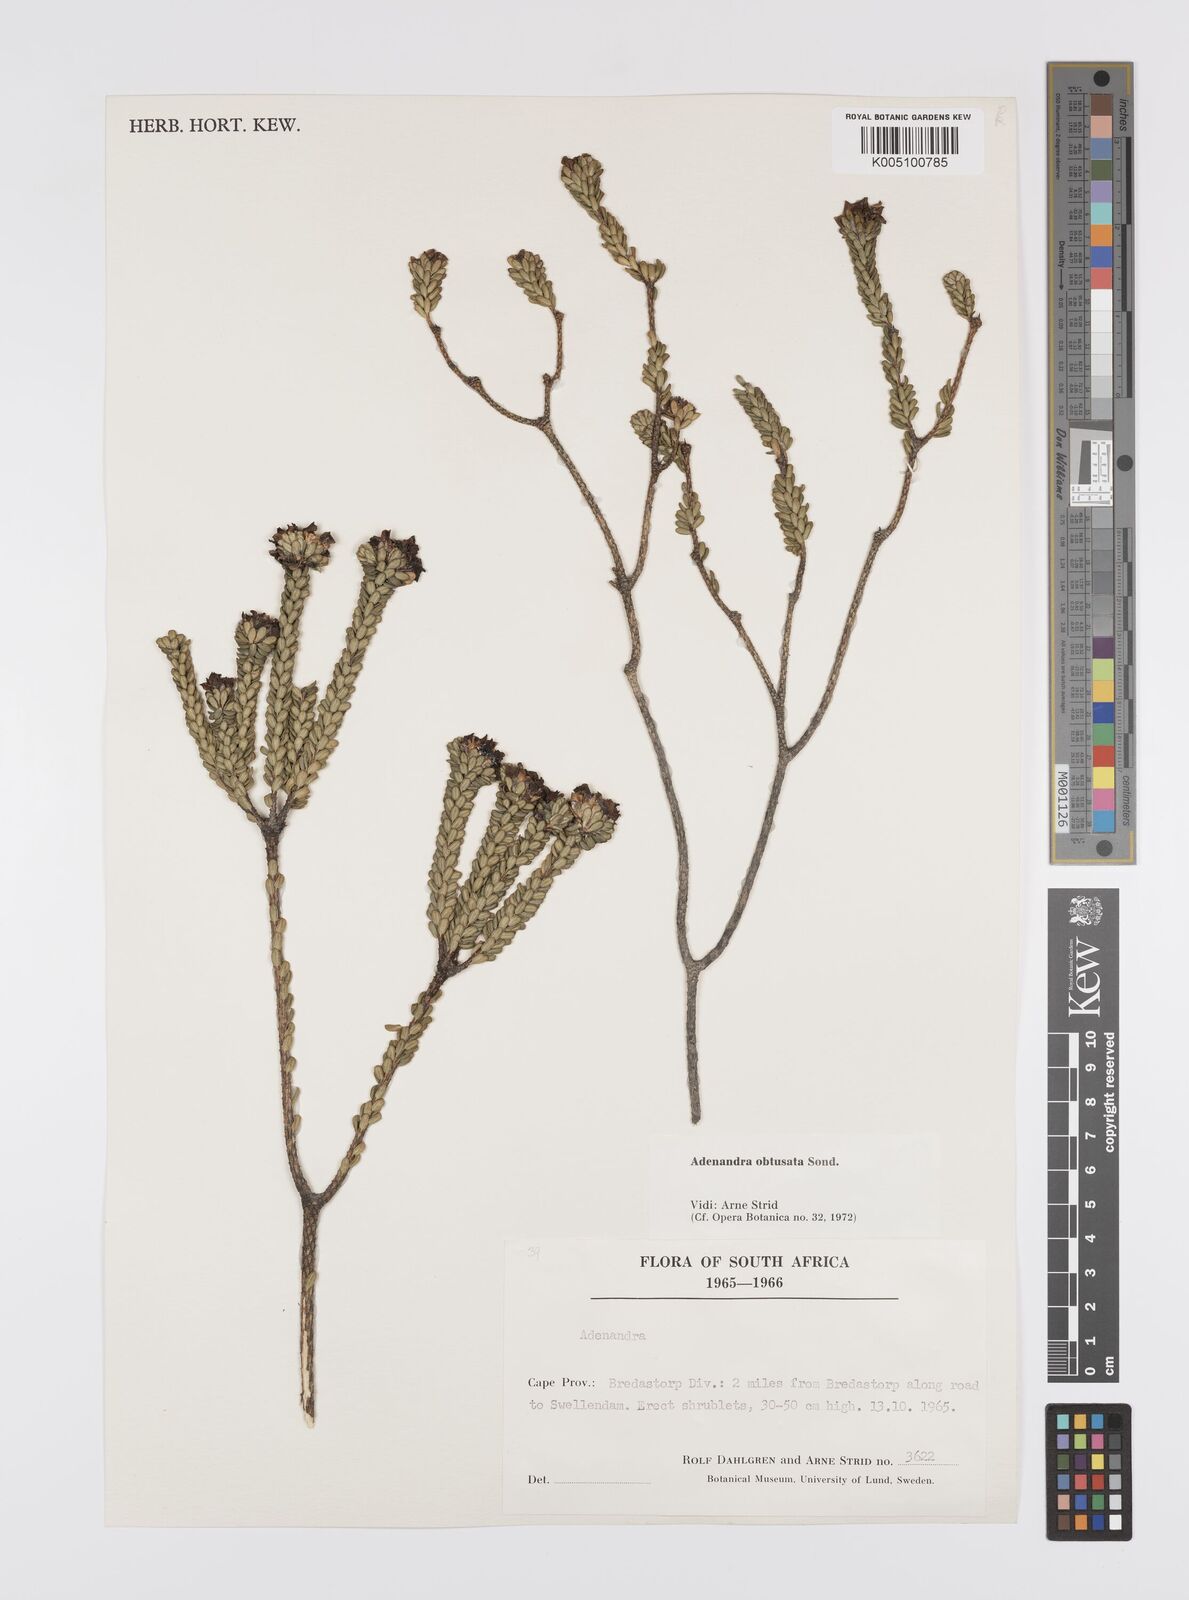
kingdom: Plantae
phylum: Tracheophyta
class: Magnoliopsida
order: Sapindales
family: Rutaceae
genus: Adenandra
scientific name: Adenandra obtusata
